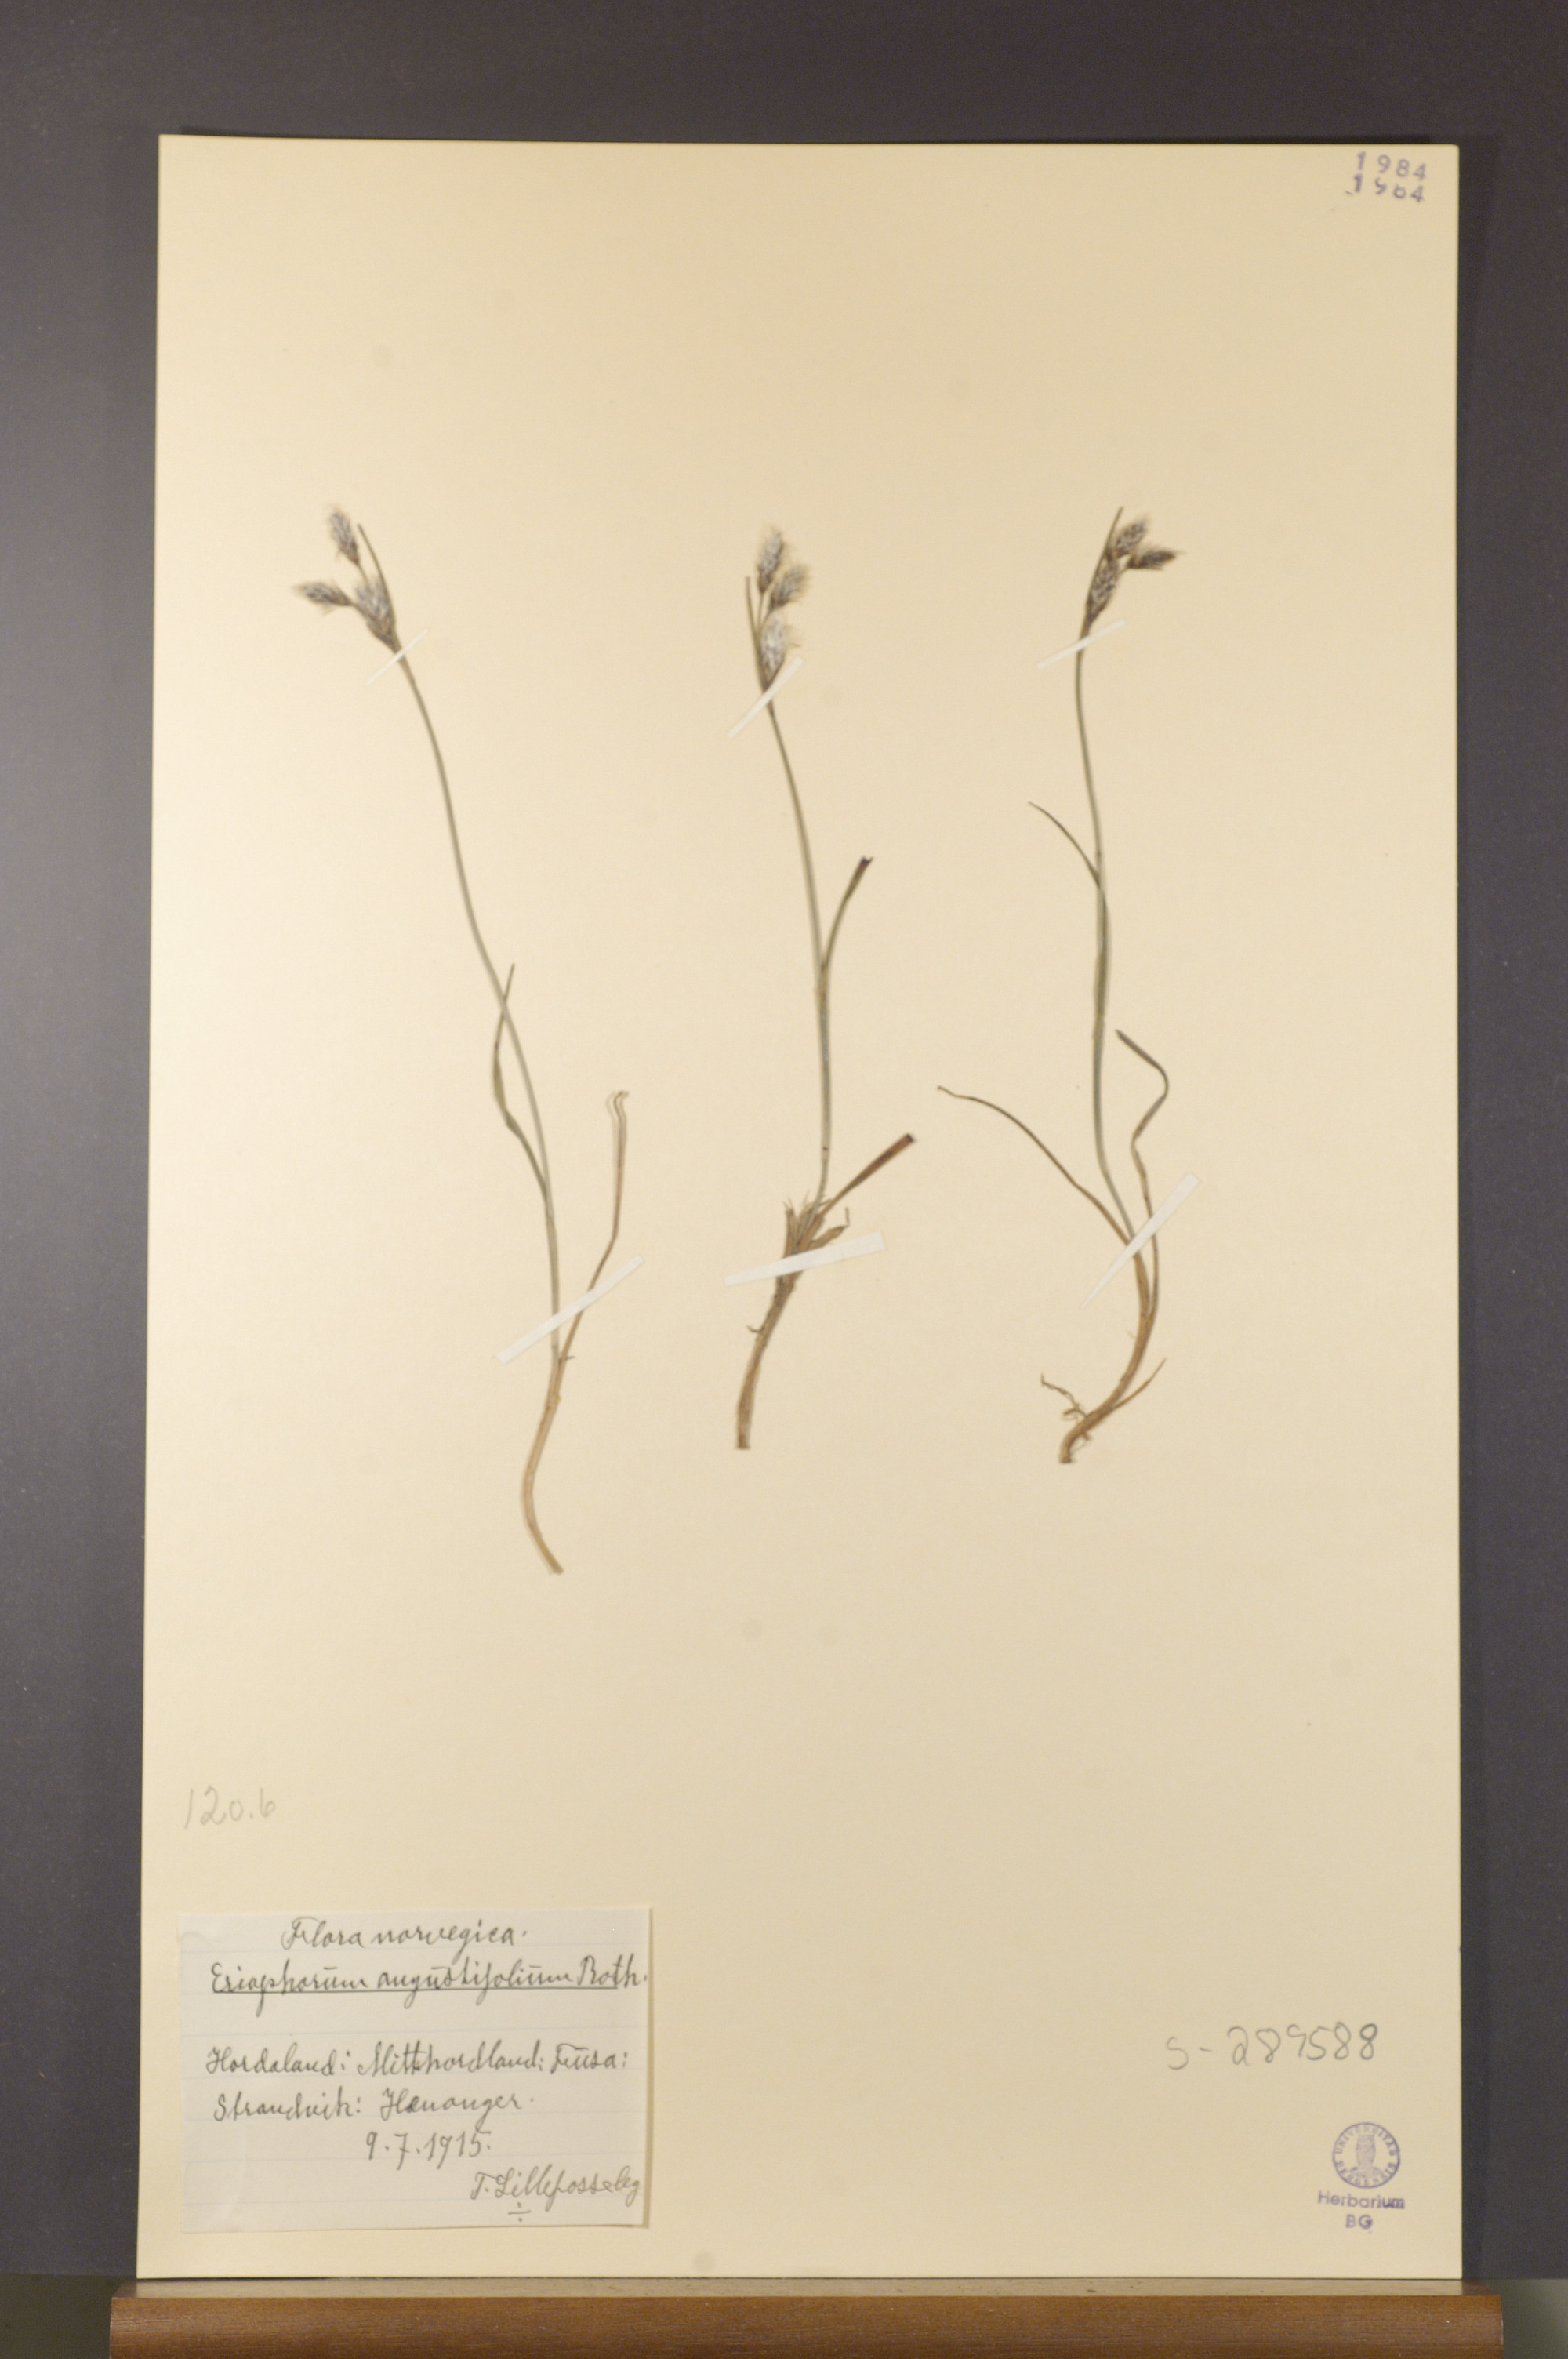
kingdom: Plantae
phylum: Tracheophyta
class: Liliopsida
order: Poales
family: Cyperaceae
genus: Eriophorum
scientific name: Eriophorum angustifolium
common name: Common cottongrass
